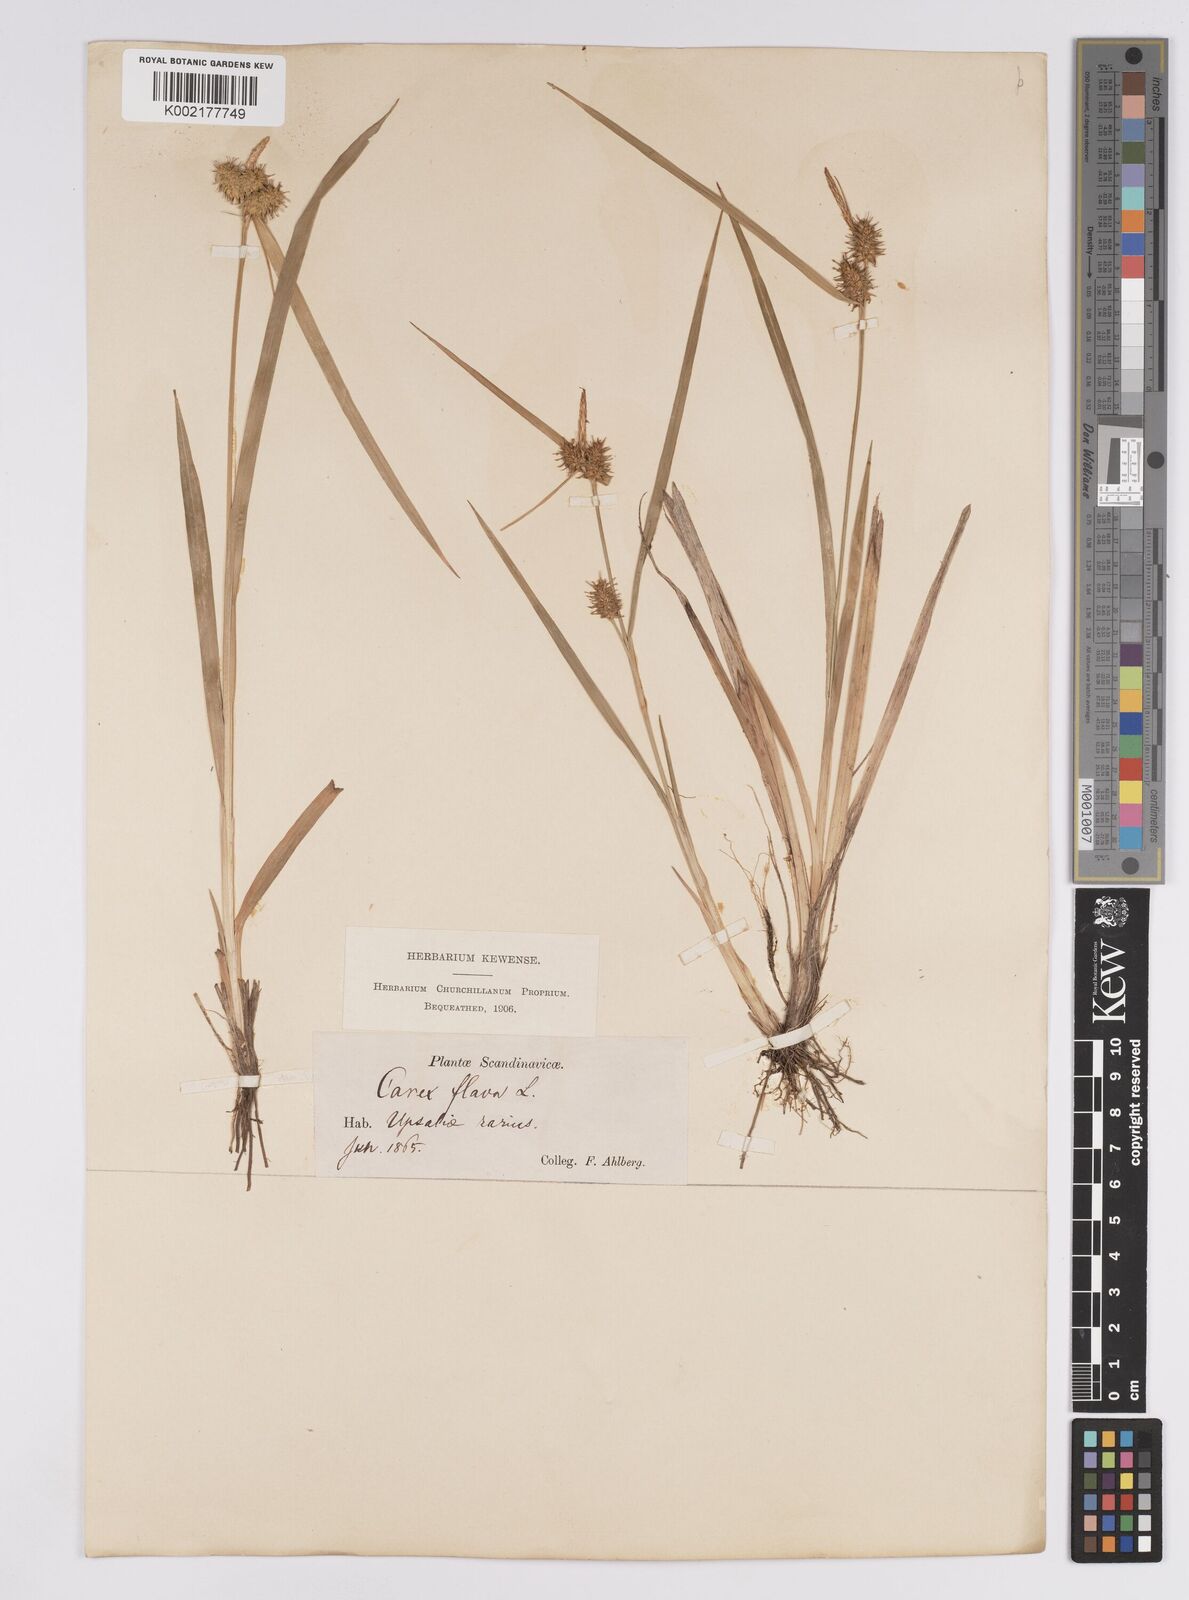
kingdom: Plantae
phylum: Tracheophyta
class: Liliopsida
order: Poales
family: Cyperaceae
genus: Carex
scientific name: Carex flava
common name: Large yellow-sedge
